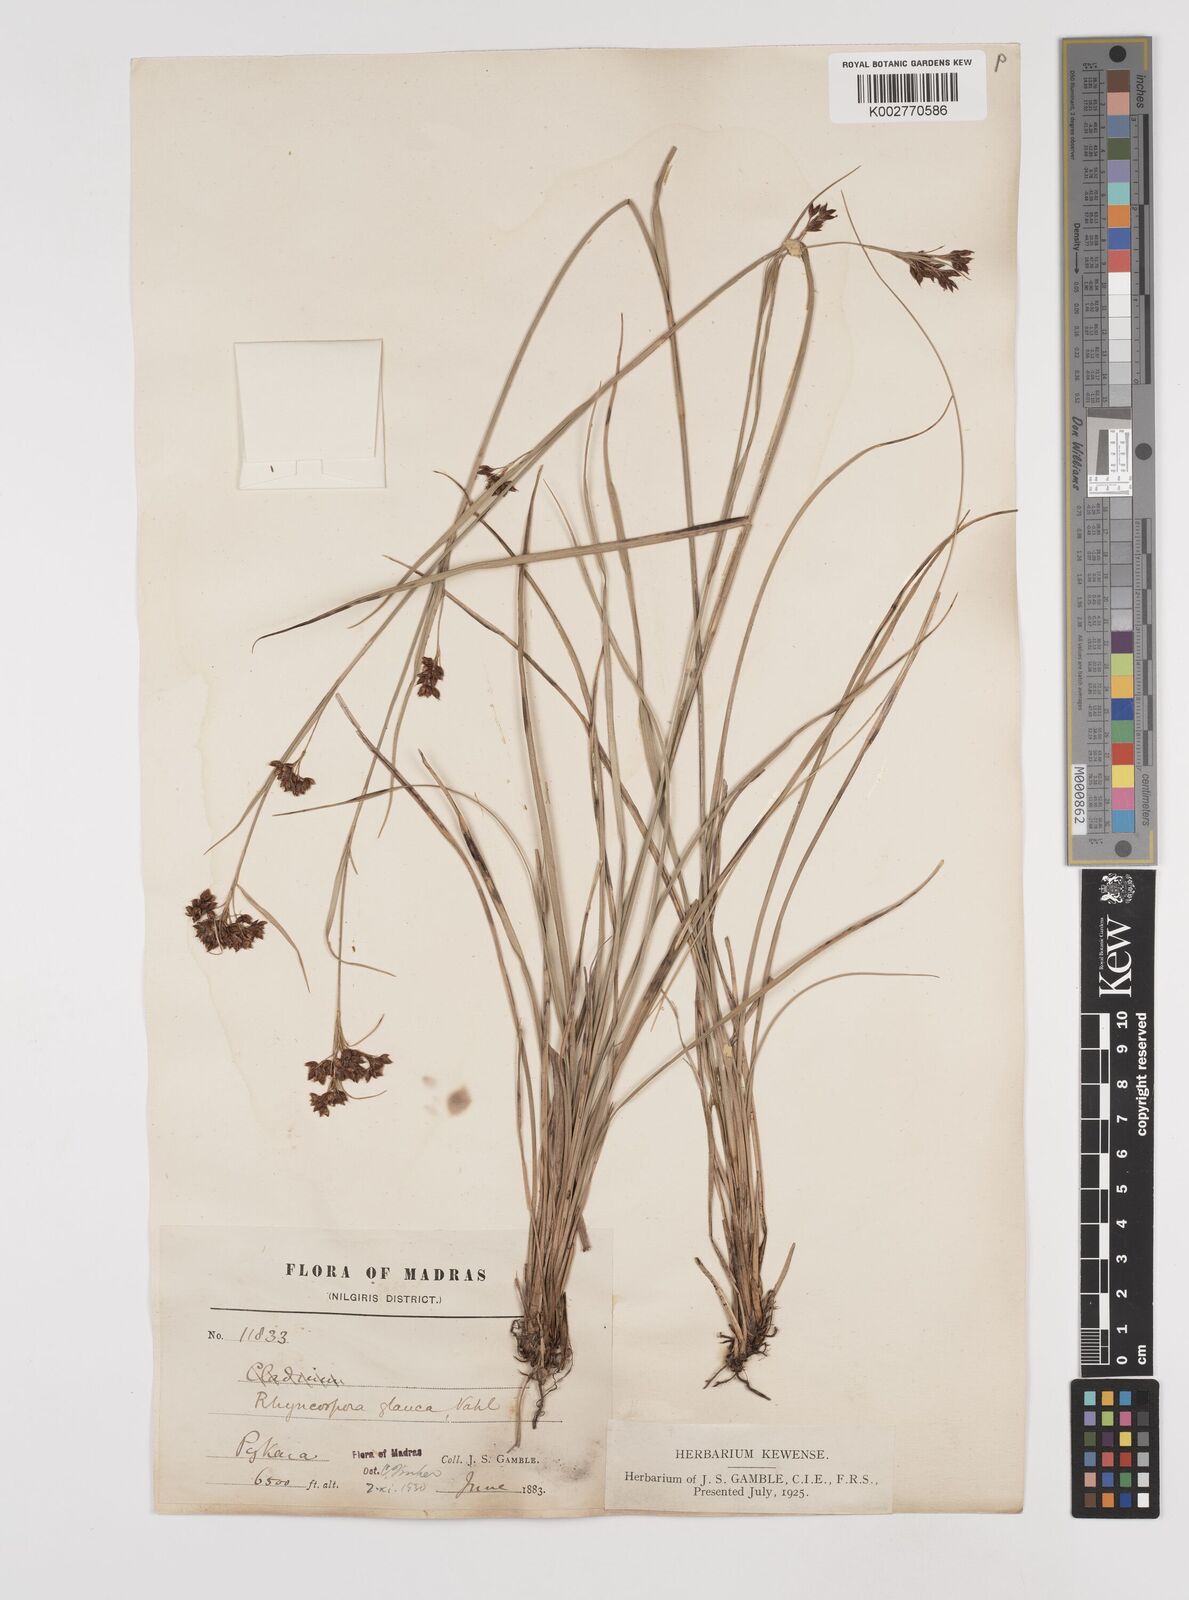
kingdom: Plantae
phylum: Tracheophyta
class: Liliopsida
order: Poales
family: Cyperaceae
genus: Rhynchospora
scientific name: Rhynchospora rugosa
